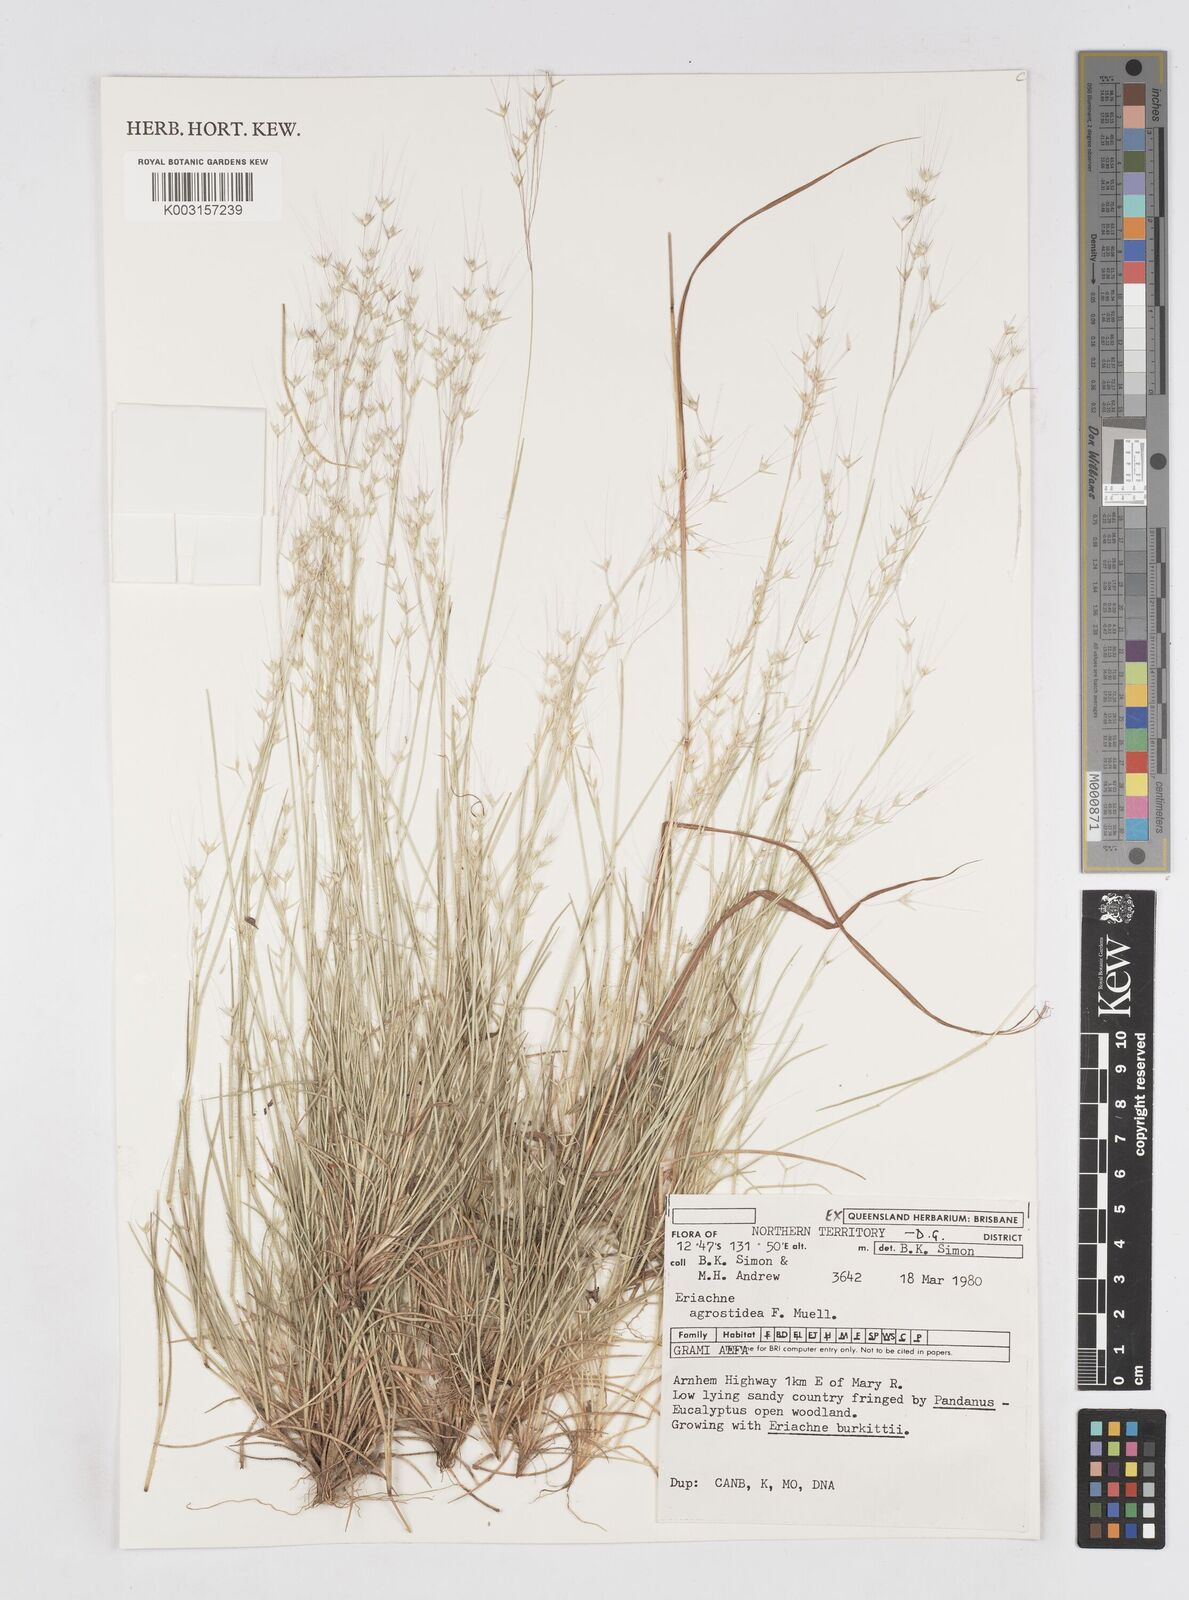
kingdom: Plantae
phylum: Tracheophyta
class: Liliopsida
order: Poales
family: Poaceae
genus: Eriachne
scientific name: Eriachne agrostidea
